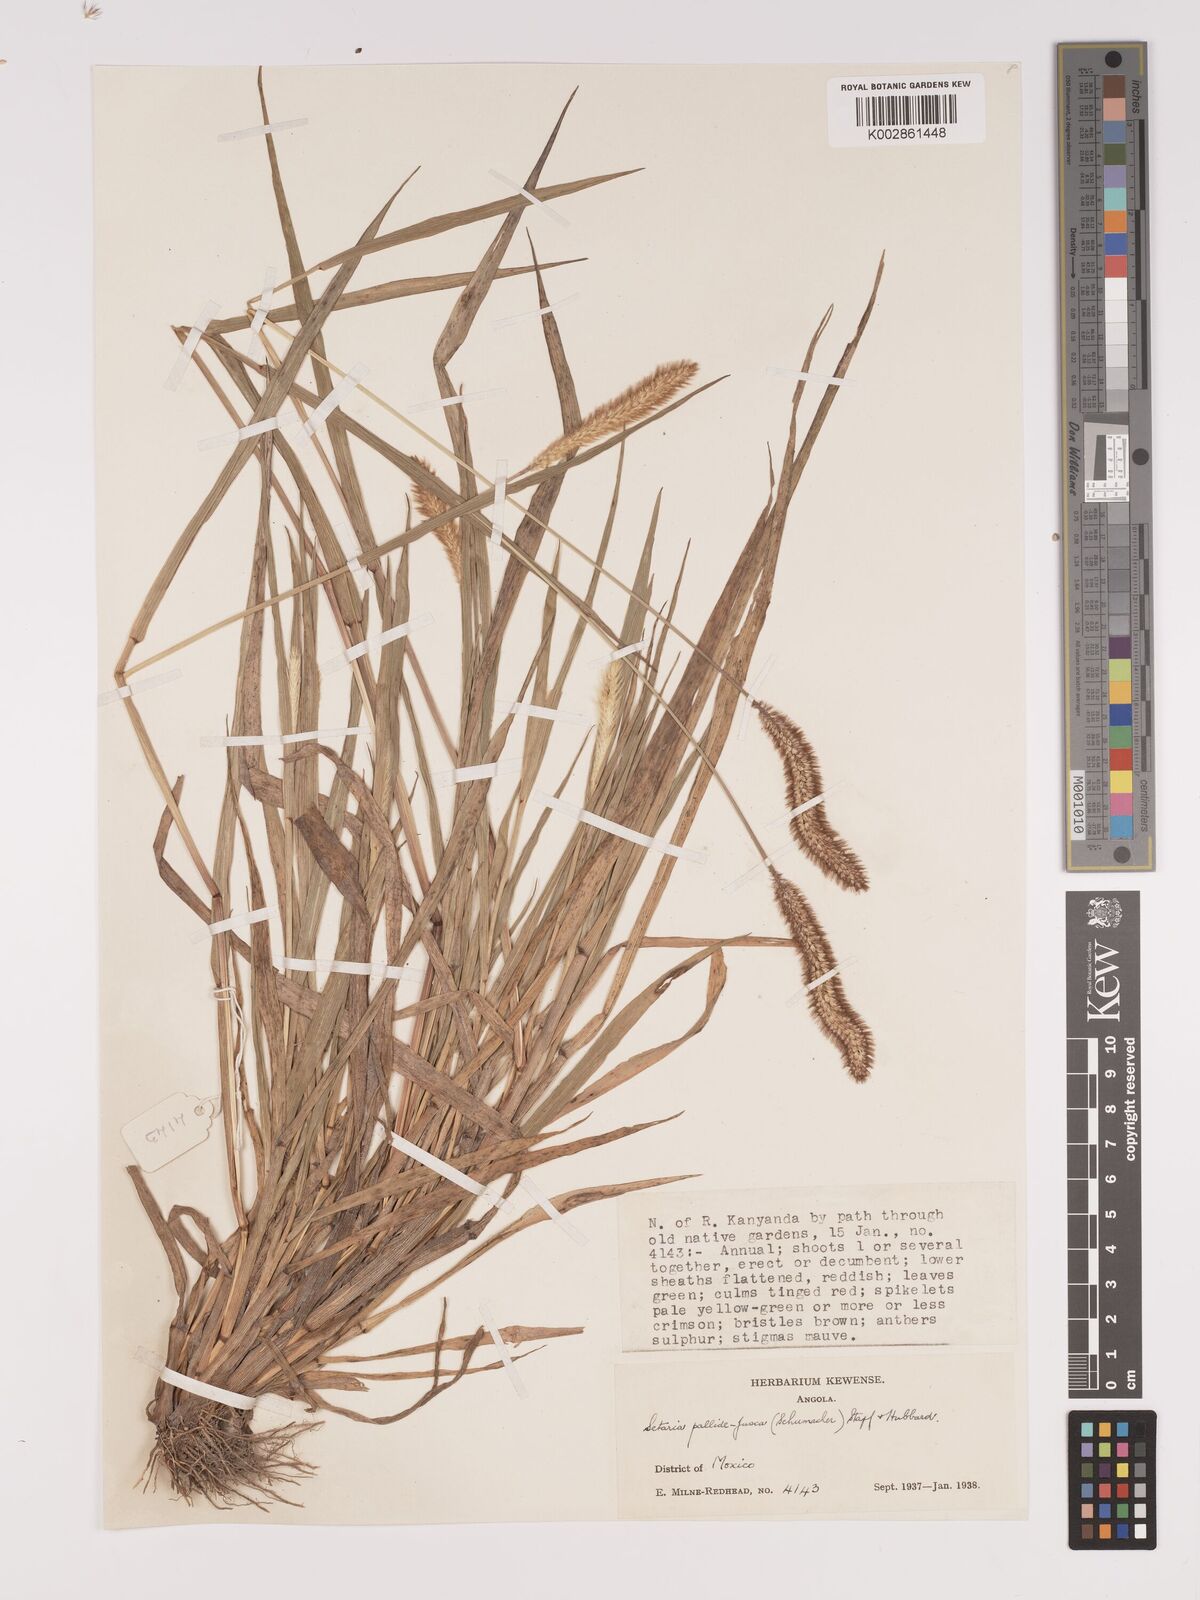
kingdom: Plantae
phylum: Tracheophyta
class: Liliopsida
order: Poales
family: Poaceae
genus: Setaria
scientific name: Setaria pumila
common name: Yellow bristle-grass
